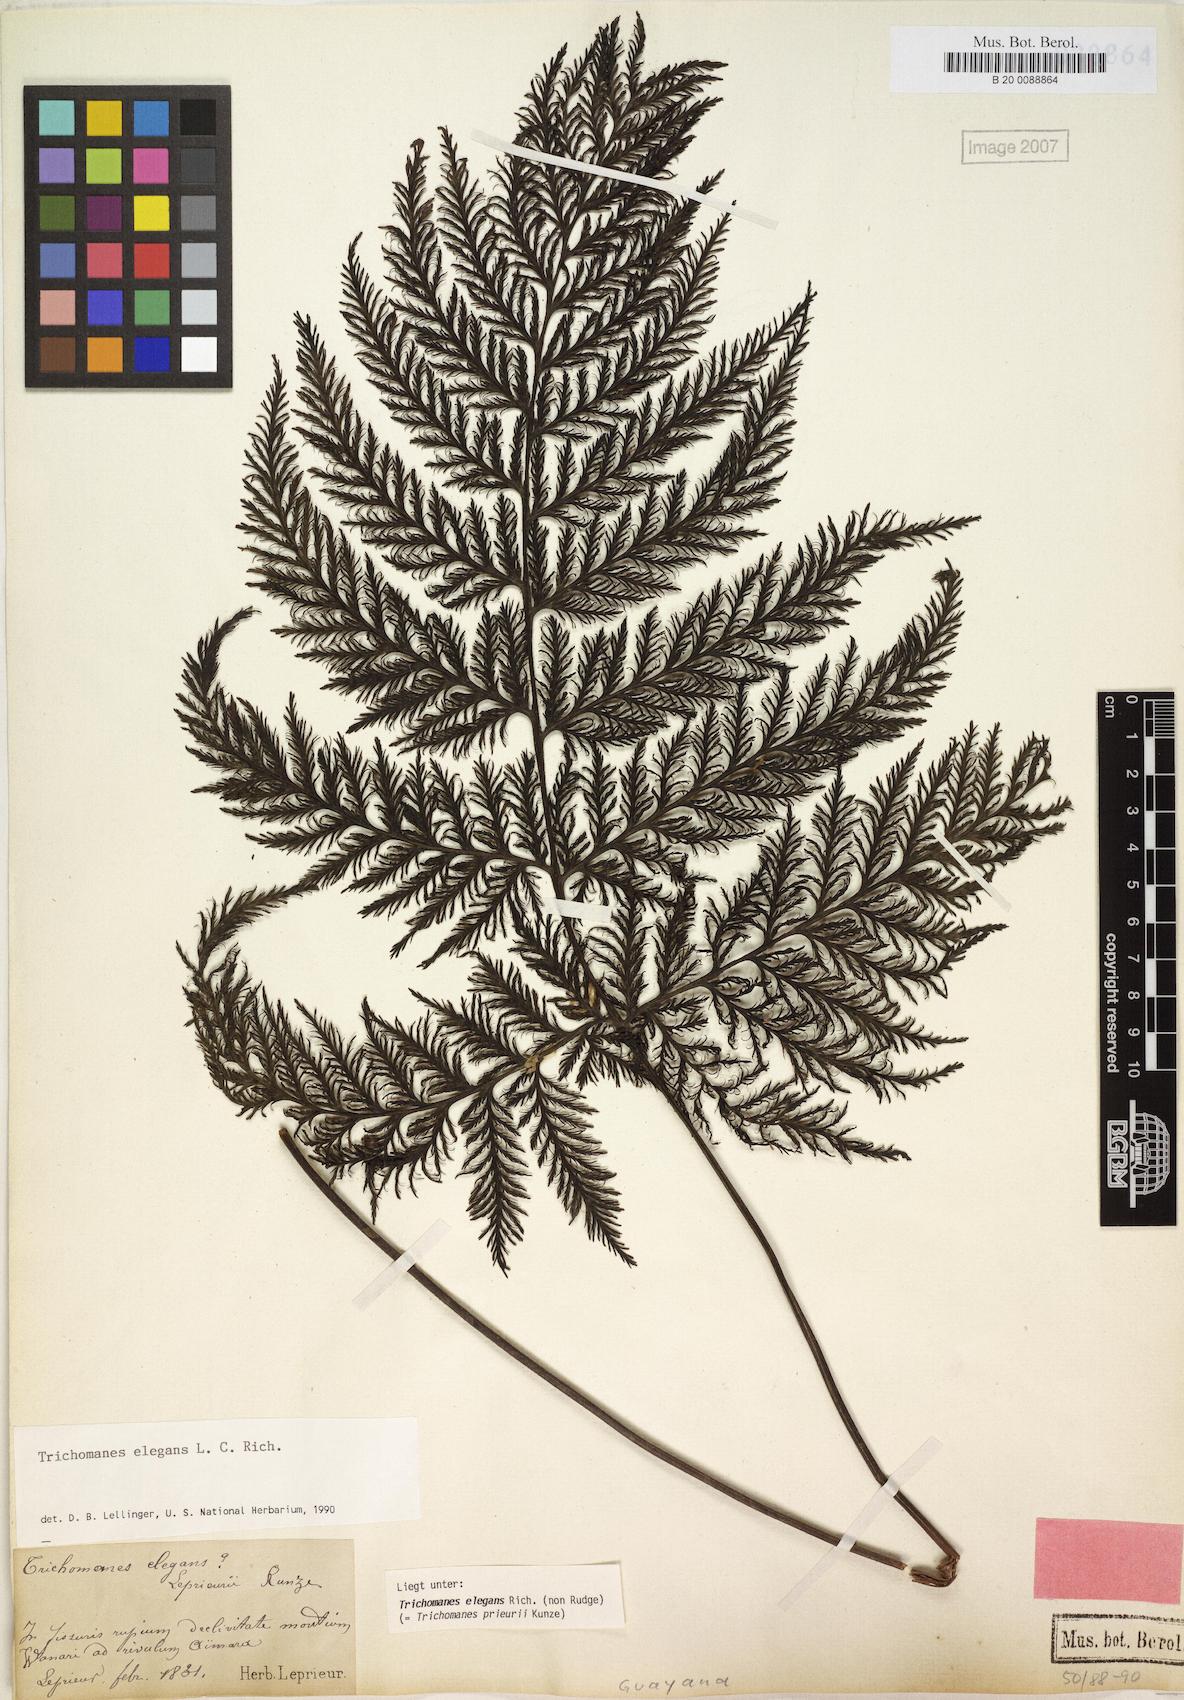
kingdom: Plantae
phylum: Tracheophyta
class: Polypodiopsida
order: Hymenophyllales
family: Hymenophyllaceae
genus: Trichomanes
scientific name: Trichomanes elegans
